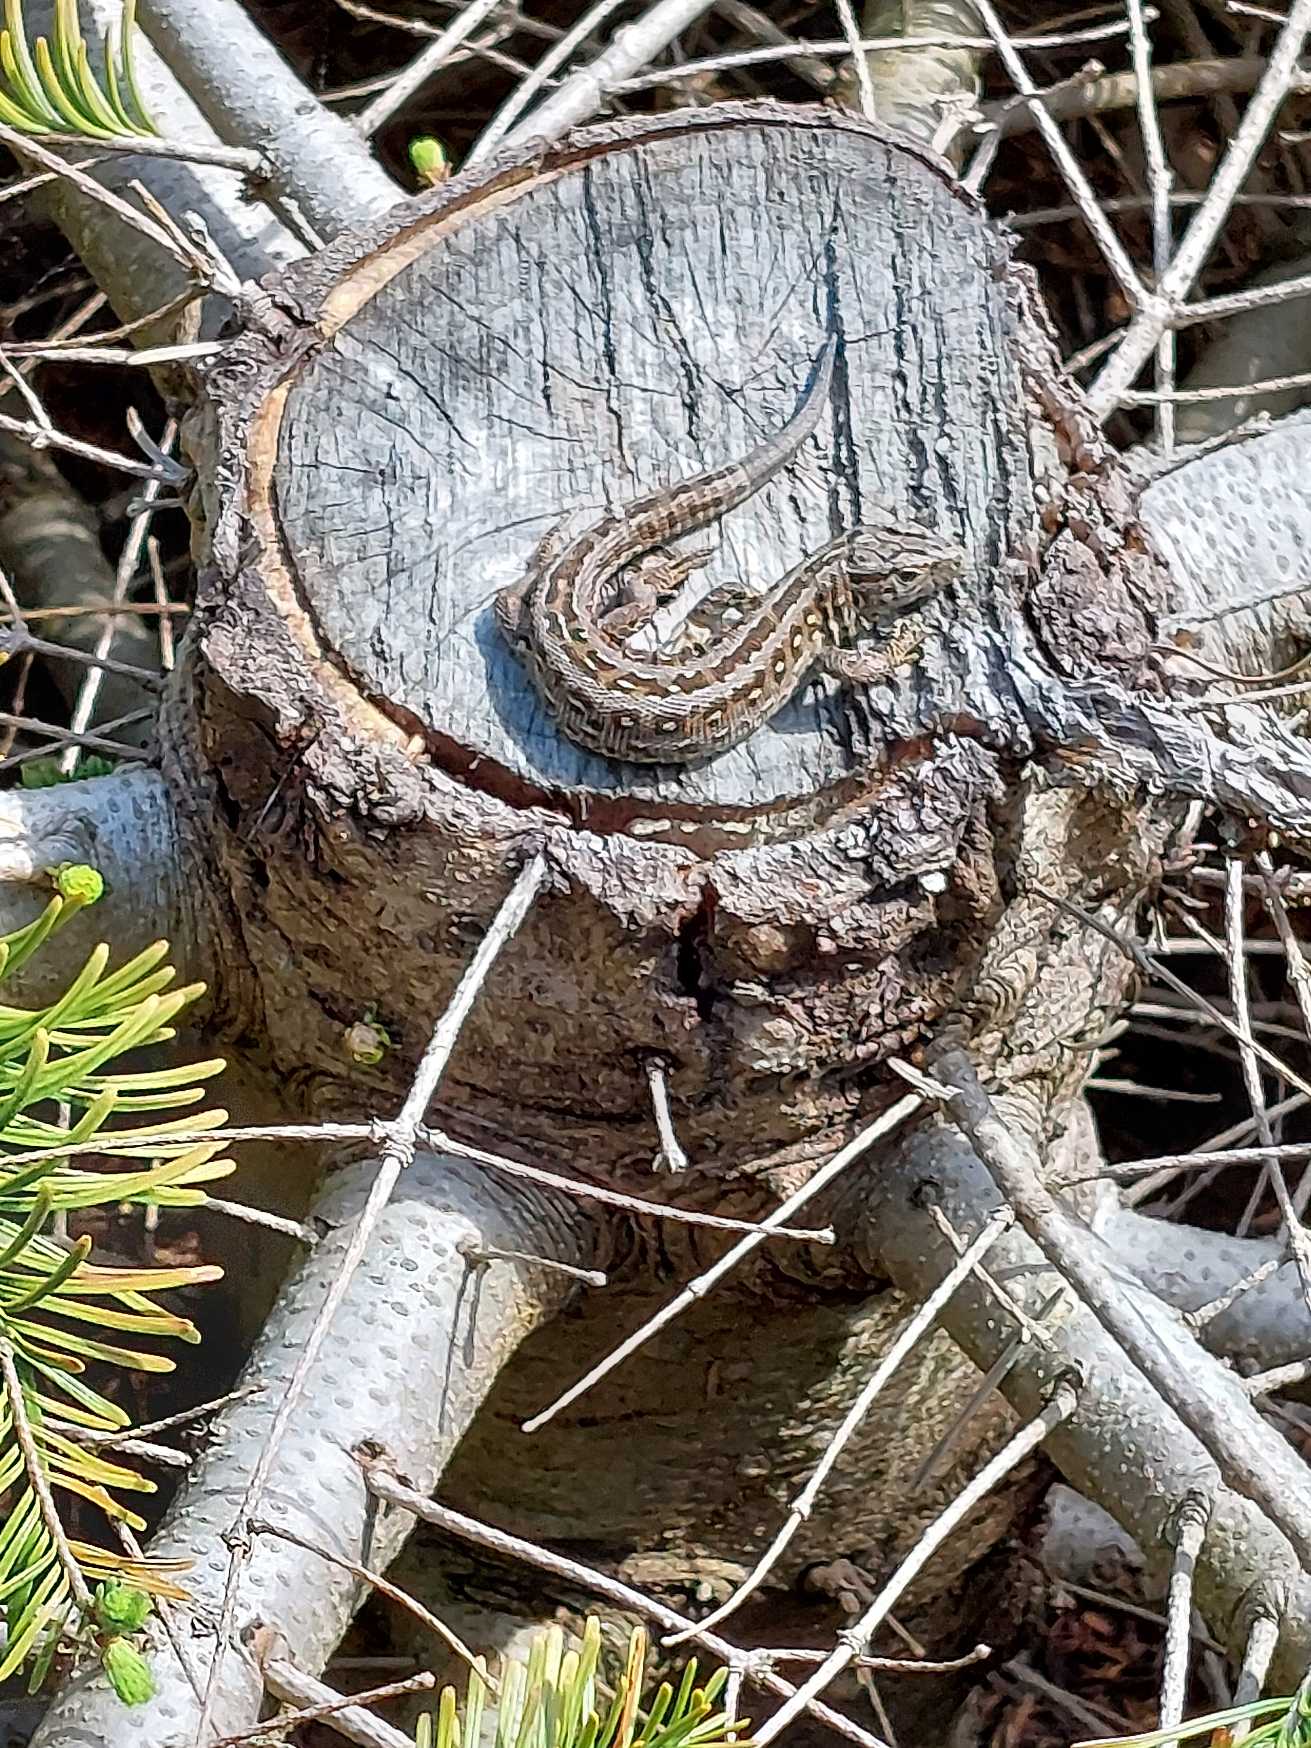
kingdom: Animalia
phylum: Chordata
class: Squamata
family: Lacertidae
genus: Lacerta
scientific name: Lacerta agilis
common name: Markfirben
